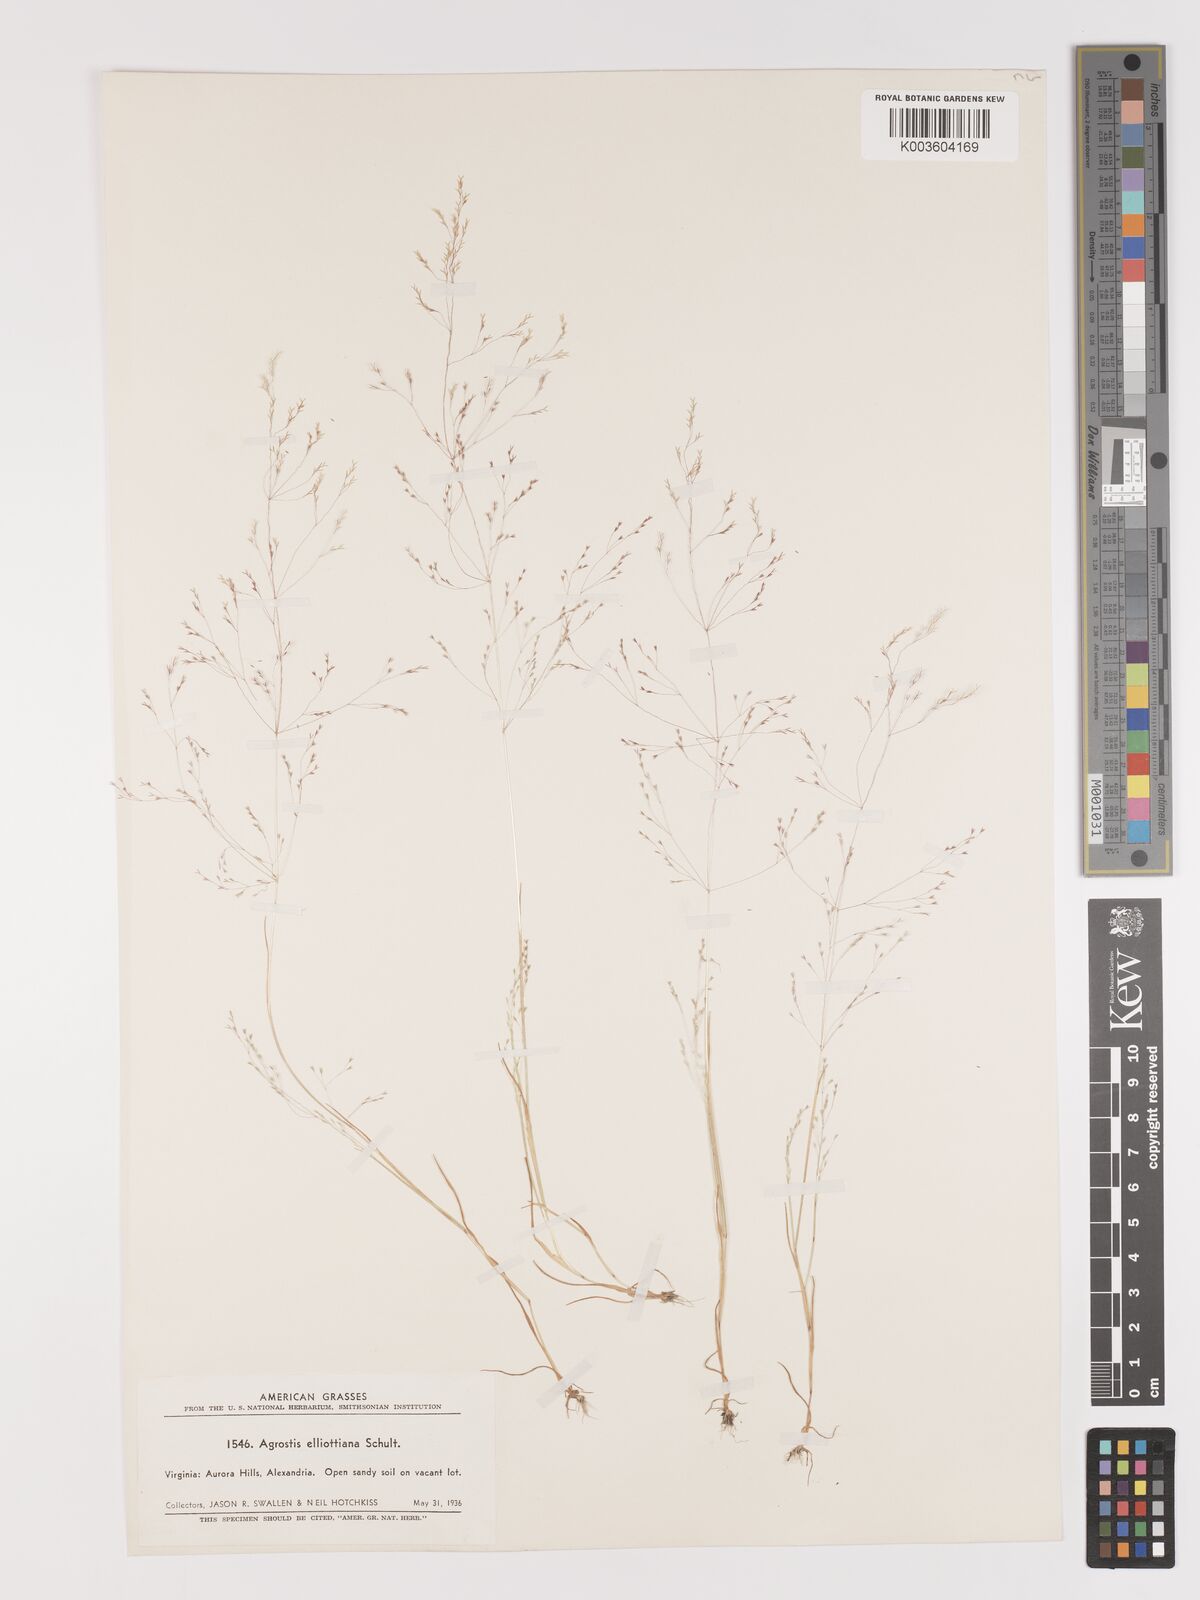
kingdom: Plantae
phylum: Tracheophyta
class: Liliopsida
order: Poales
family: Poaceae
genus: Agrostis
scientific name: Agrostis elliottiana
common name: Elliott's bent
